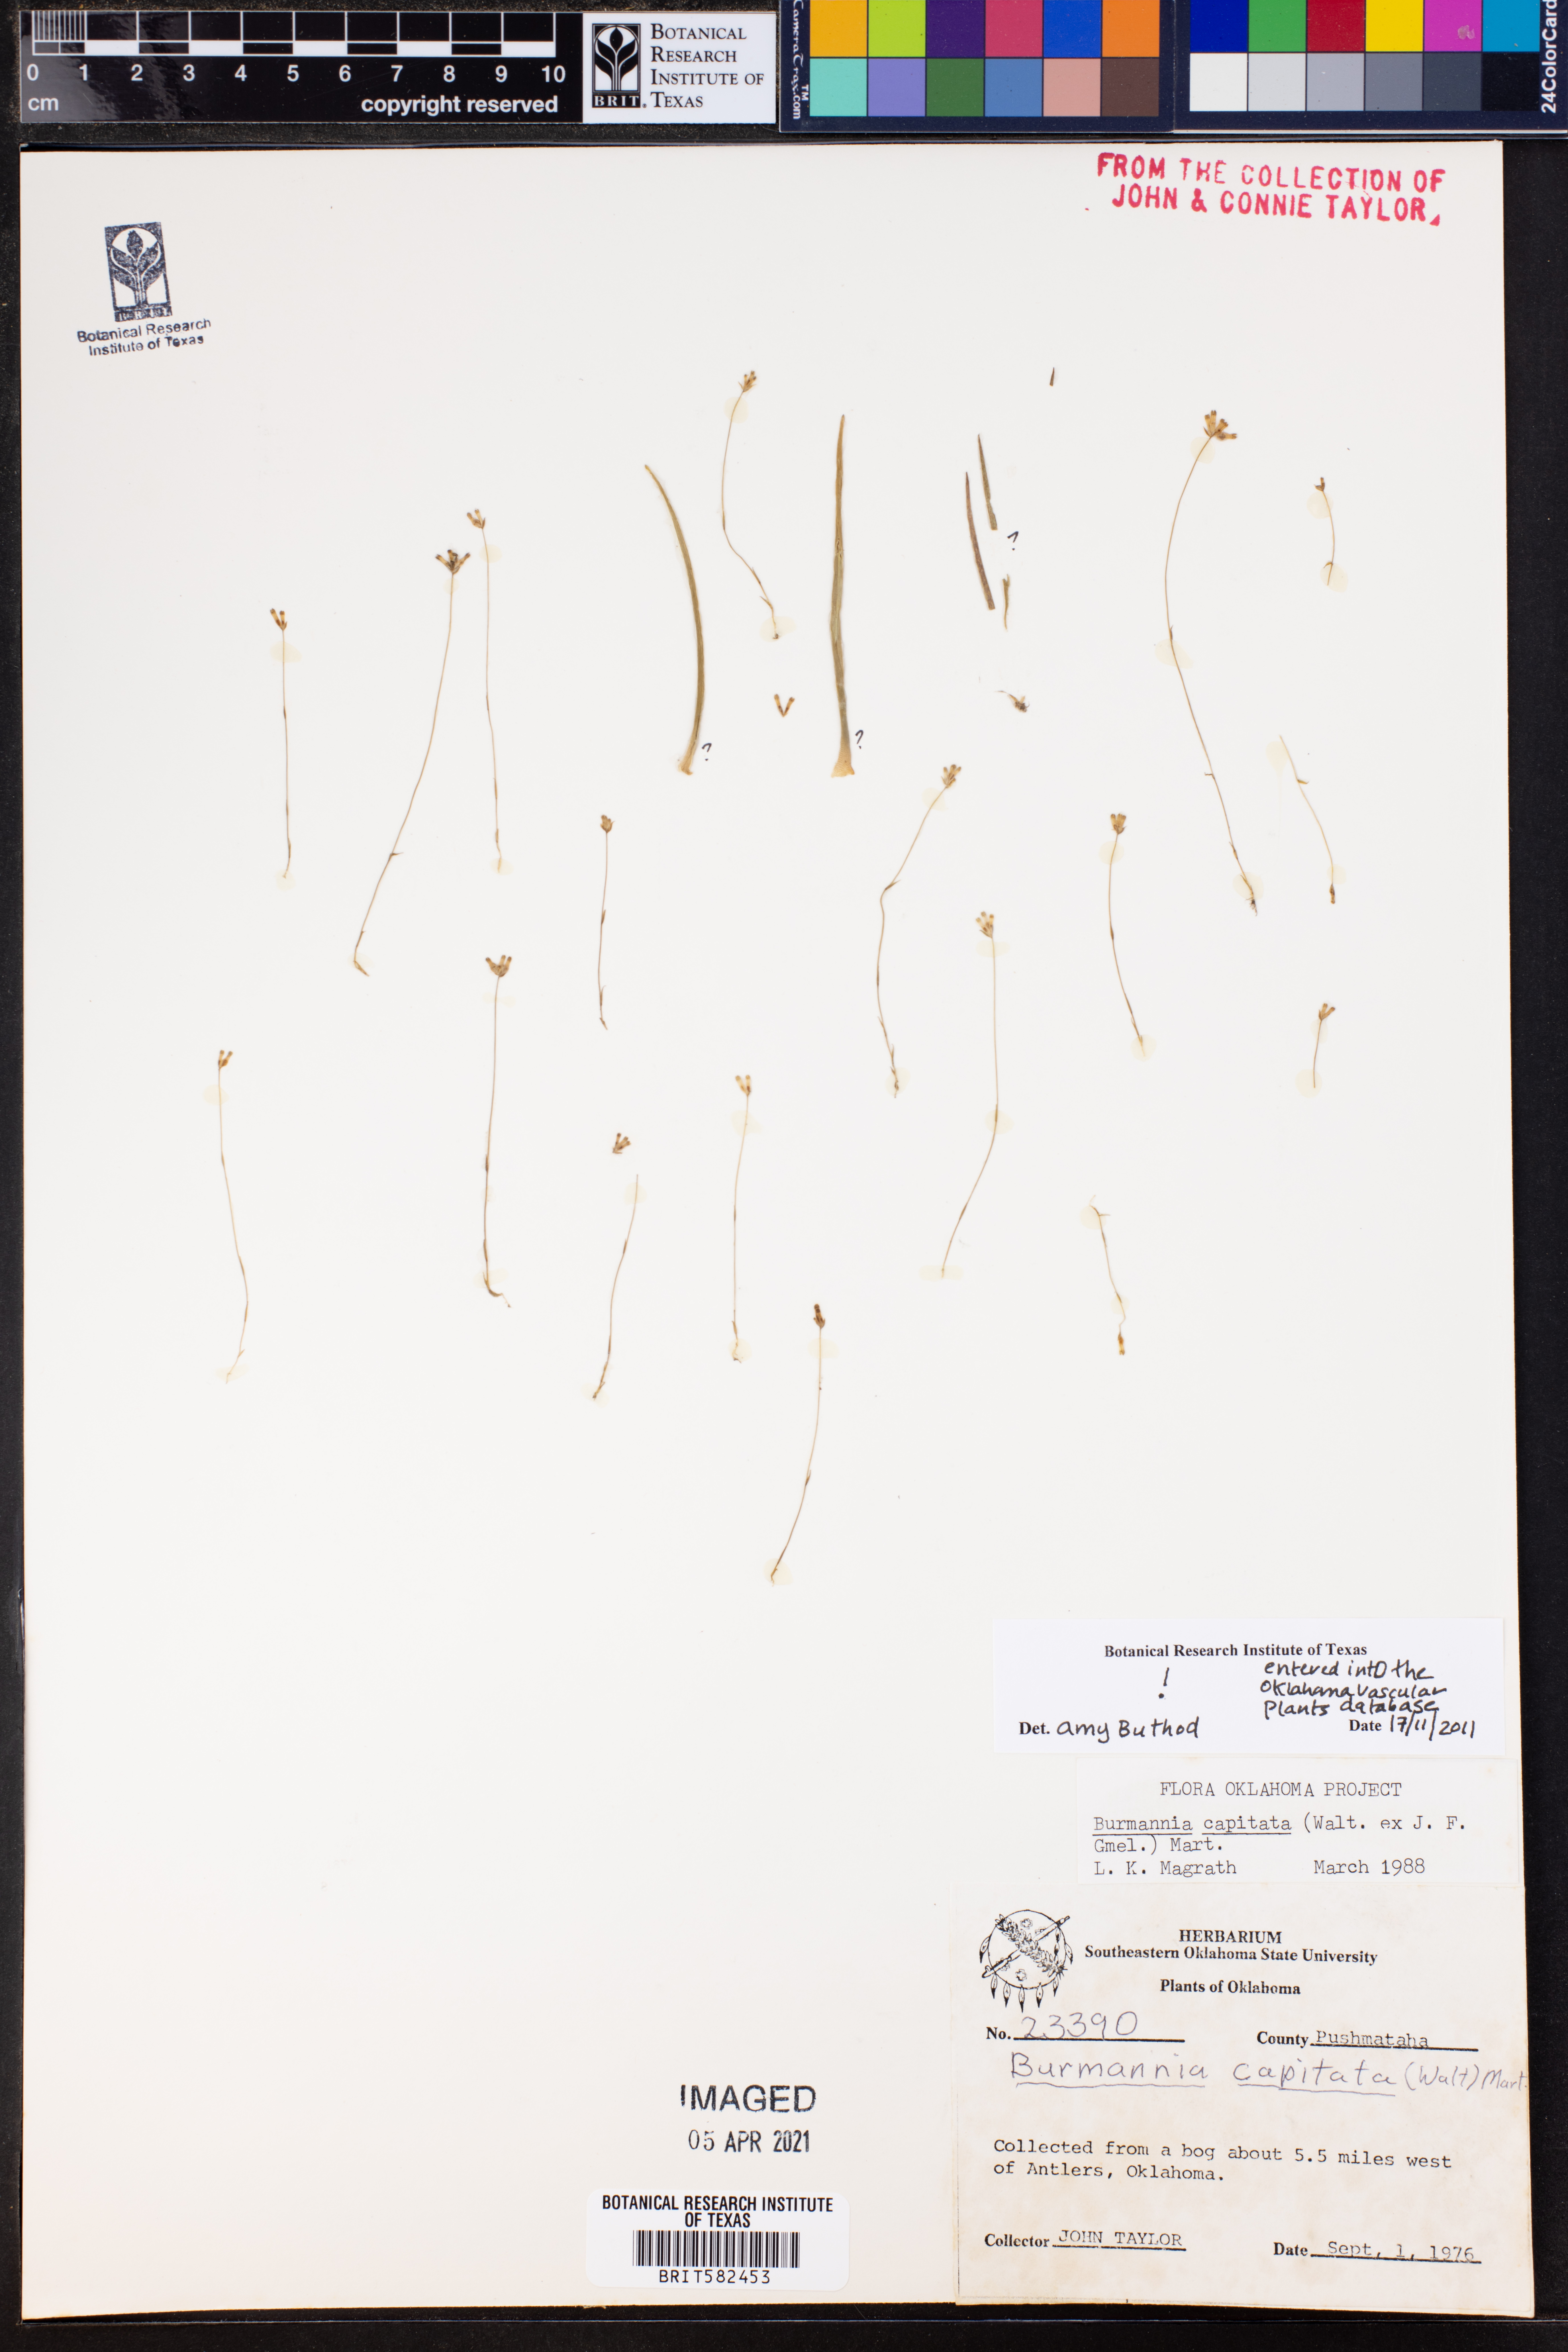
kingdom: Plantae
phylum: Tracheophyta
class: Liliopsida
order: Dioscoreales
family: Burmanniaceae
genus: Burmannia
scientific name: Burmannia capitata
